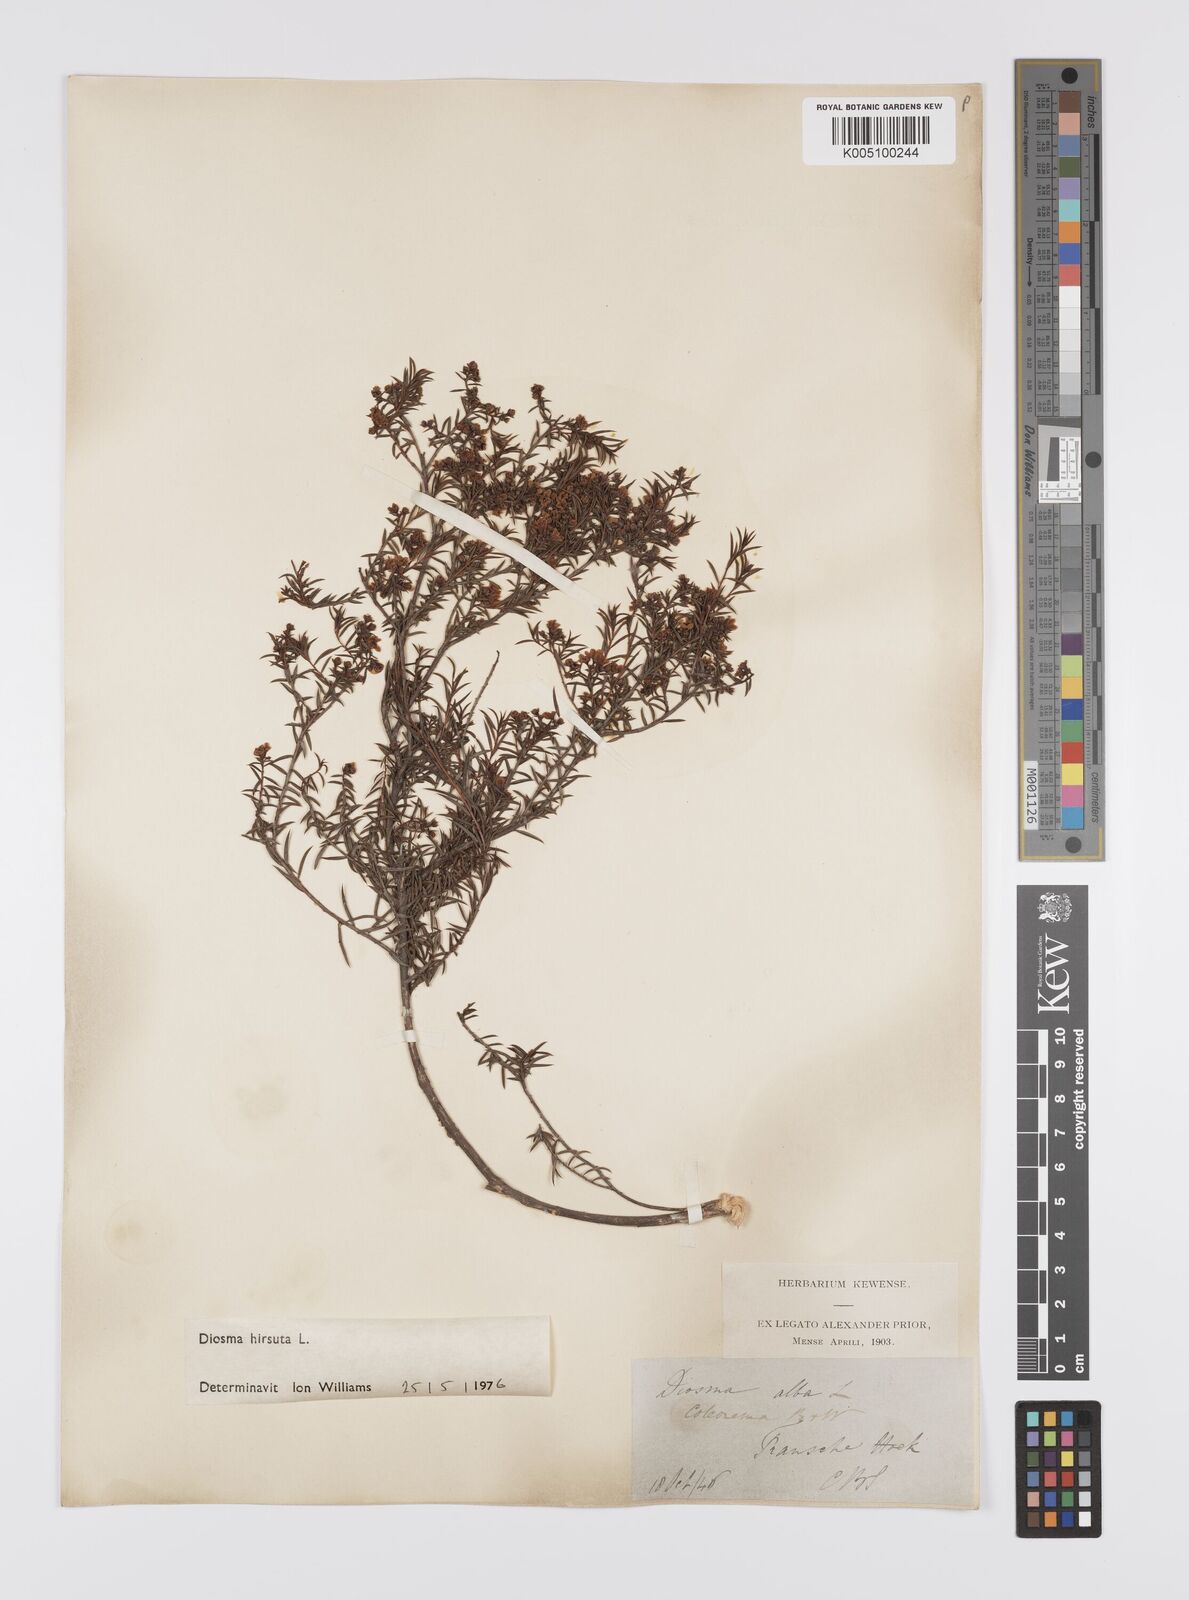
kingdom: Plantae
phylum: Tracheophyta
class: Magnoliopsida
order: Sapindales
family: Rutaceae
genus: Diosma
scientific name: Diosma hirsuta
